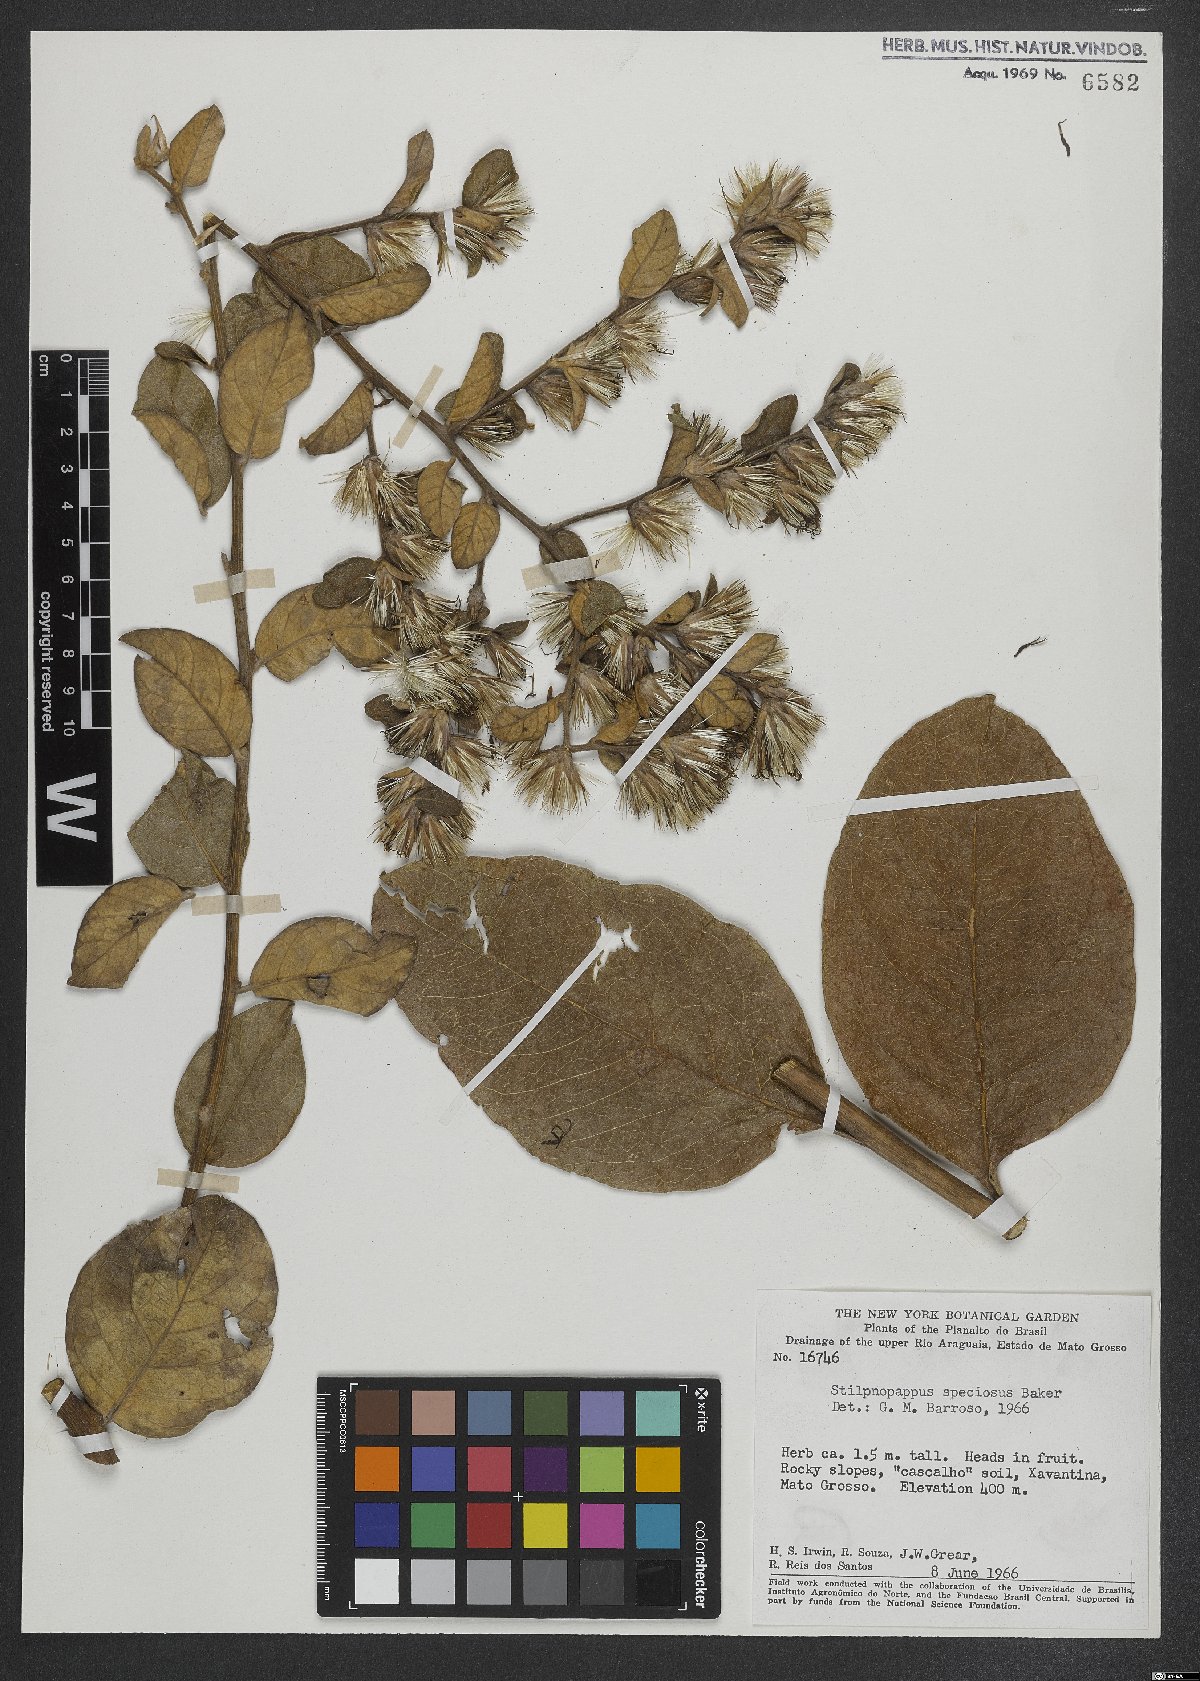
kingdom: Plantae
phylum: Tracheophyta
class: Magnoliopsida
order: Asterales
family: Asteraceae
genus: Stilpnopappus
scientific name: Stilpnopappus speciosus
